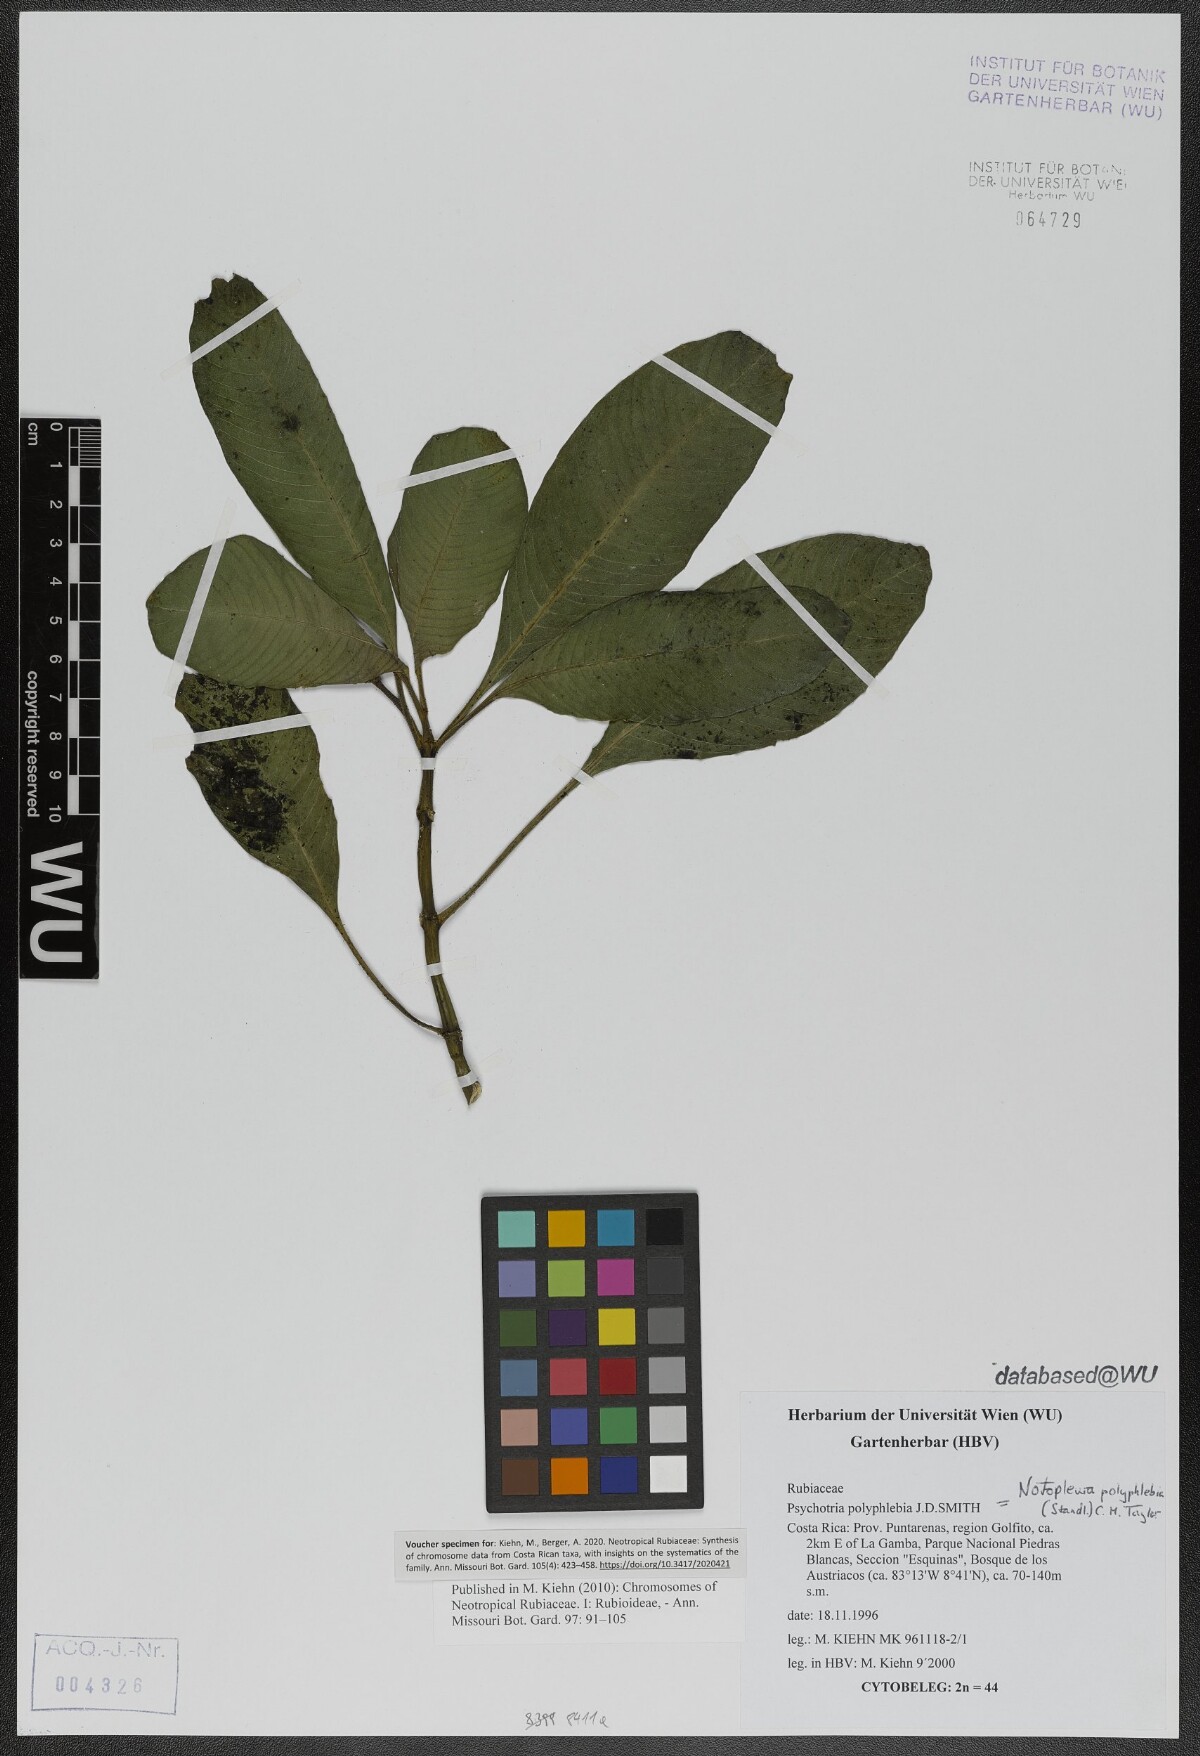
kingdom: Plantae
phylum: Tracheophyta
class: Magnoliopsida
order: Gentianales
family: Rubiaceae
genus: Notopleura
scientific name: Notopleura polyphlebia
